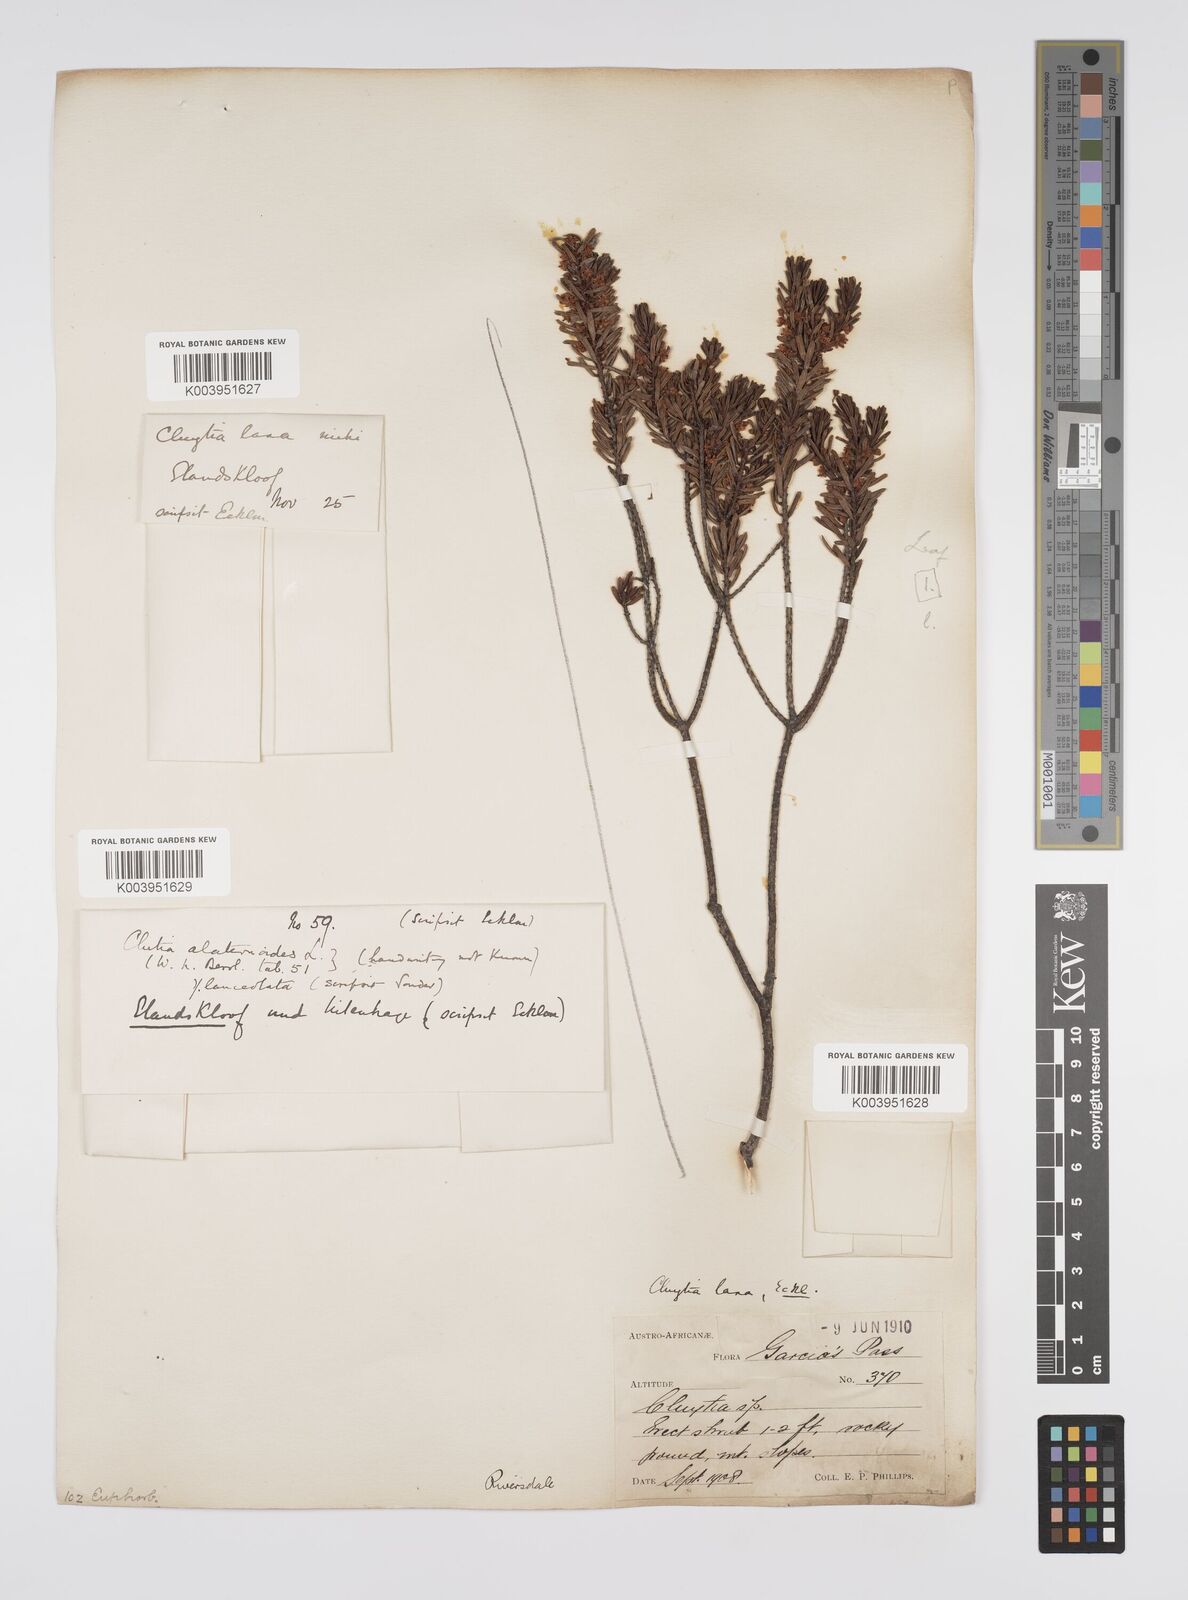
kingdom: Plantae
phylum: Tracheophyta
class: Magnoliopsida
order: Malpighiales
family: Peraceae
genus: Clutia
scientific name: Clutia laxa
